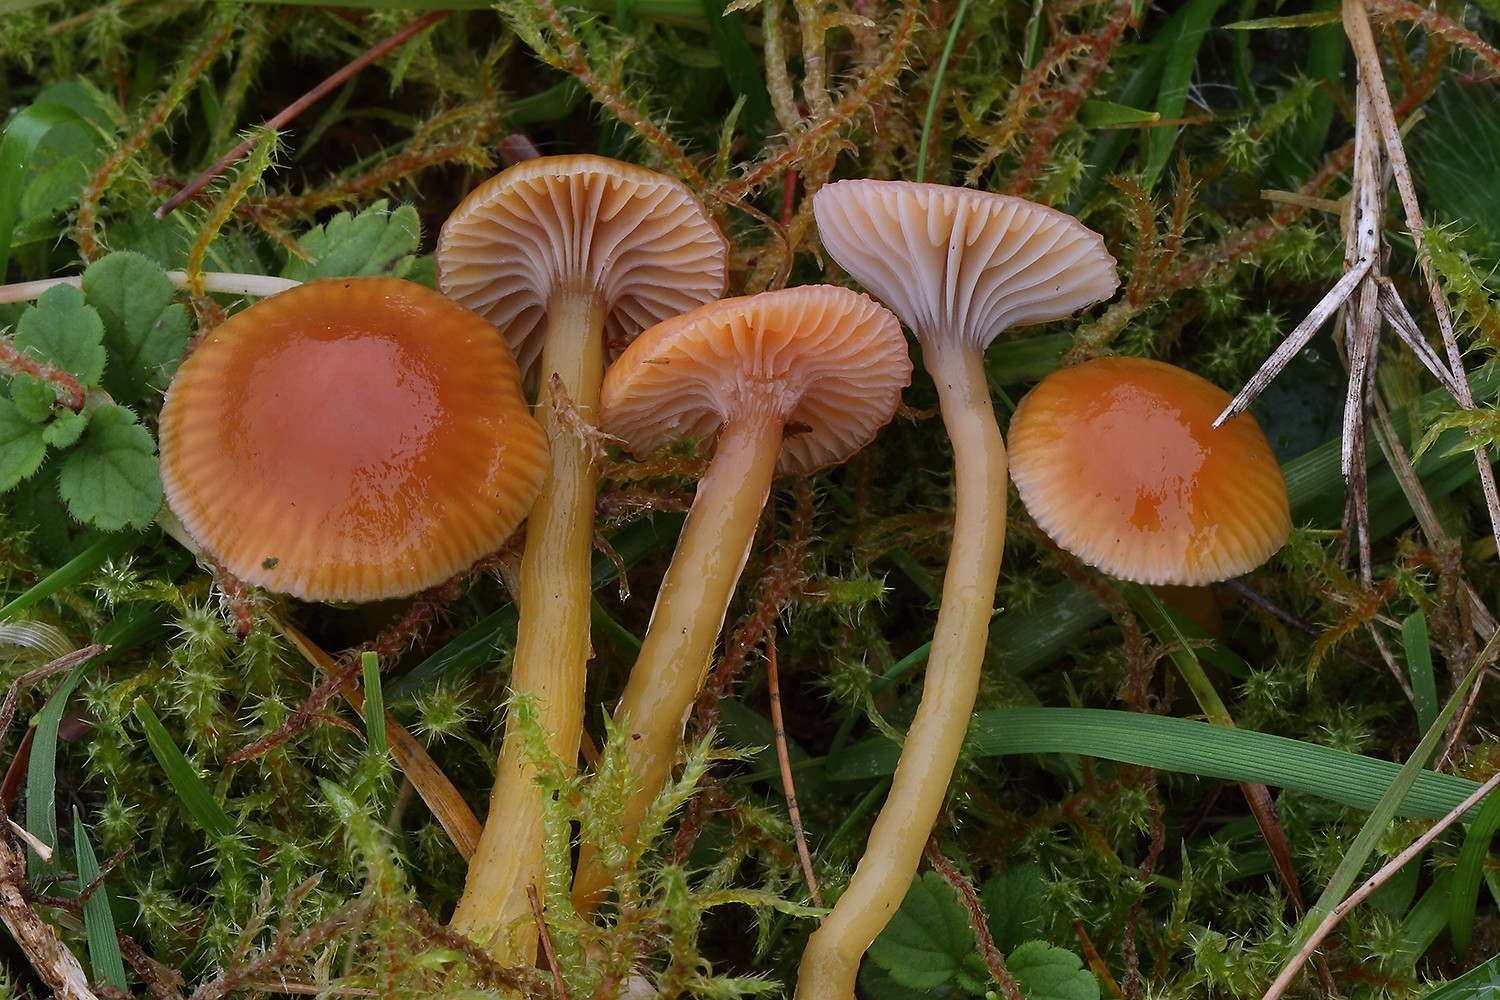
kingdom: Fungi
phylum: Basidiomycota
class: Agaricomycetes
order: Agaricales
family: Hygrophoraceae
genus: Gliophorus
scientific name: Gliophorus laetus
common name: brusk-vokshat
